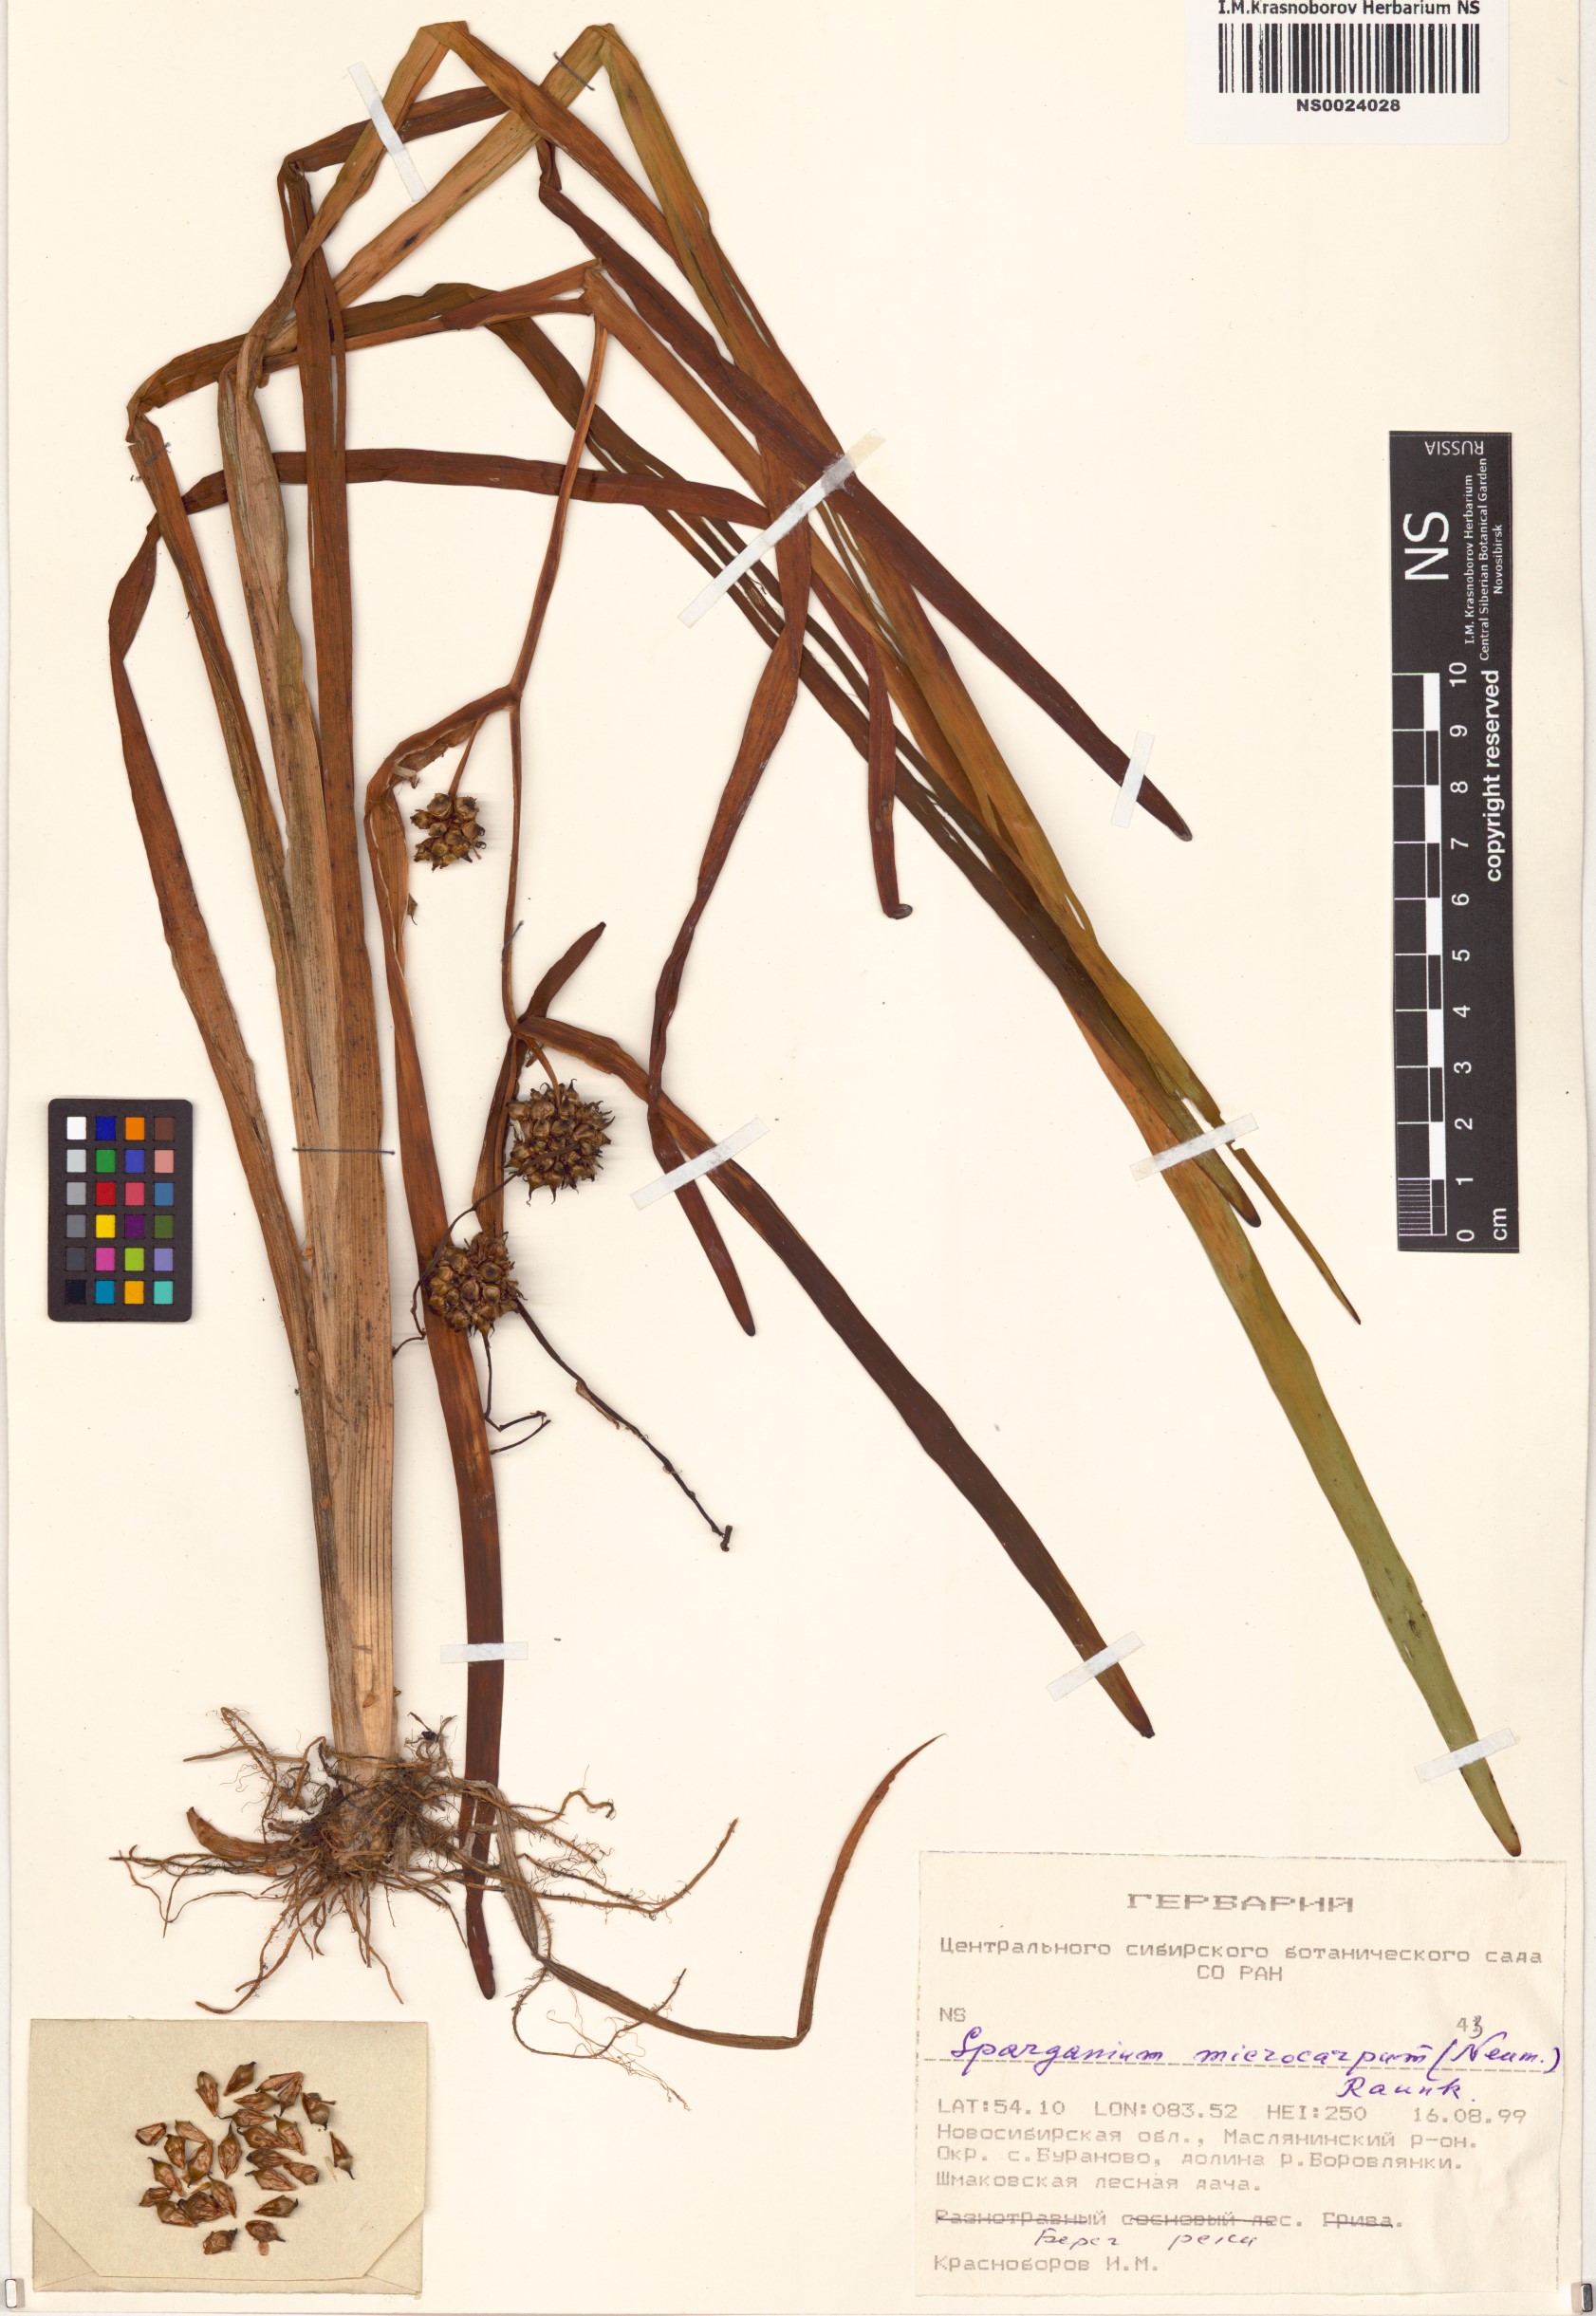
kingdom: Plantae
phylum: Tracheophyta
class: Liliopsida
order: Poales
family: Typhaceae
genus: Sparganium
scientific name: Sparganium erectum
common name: Branched bur-reed
